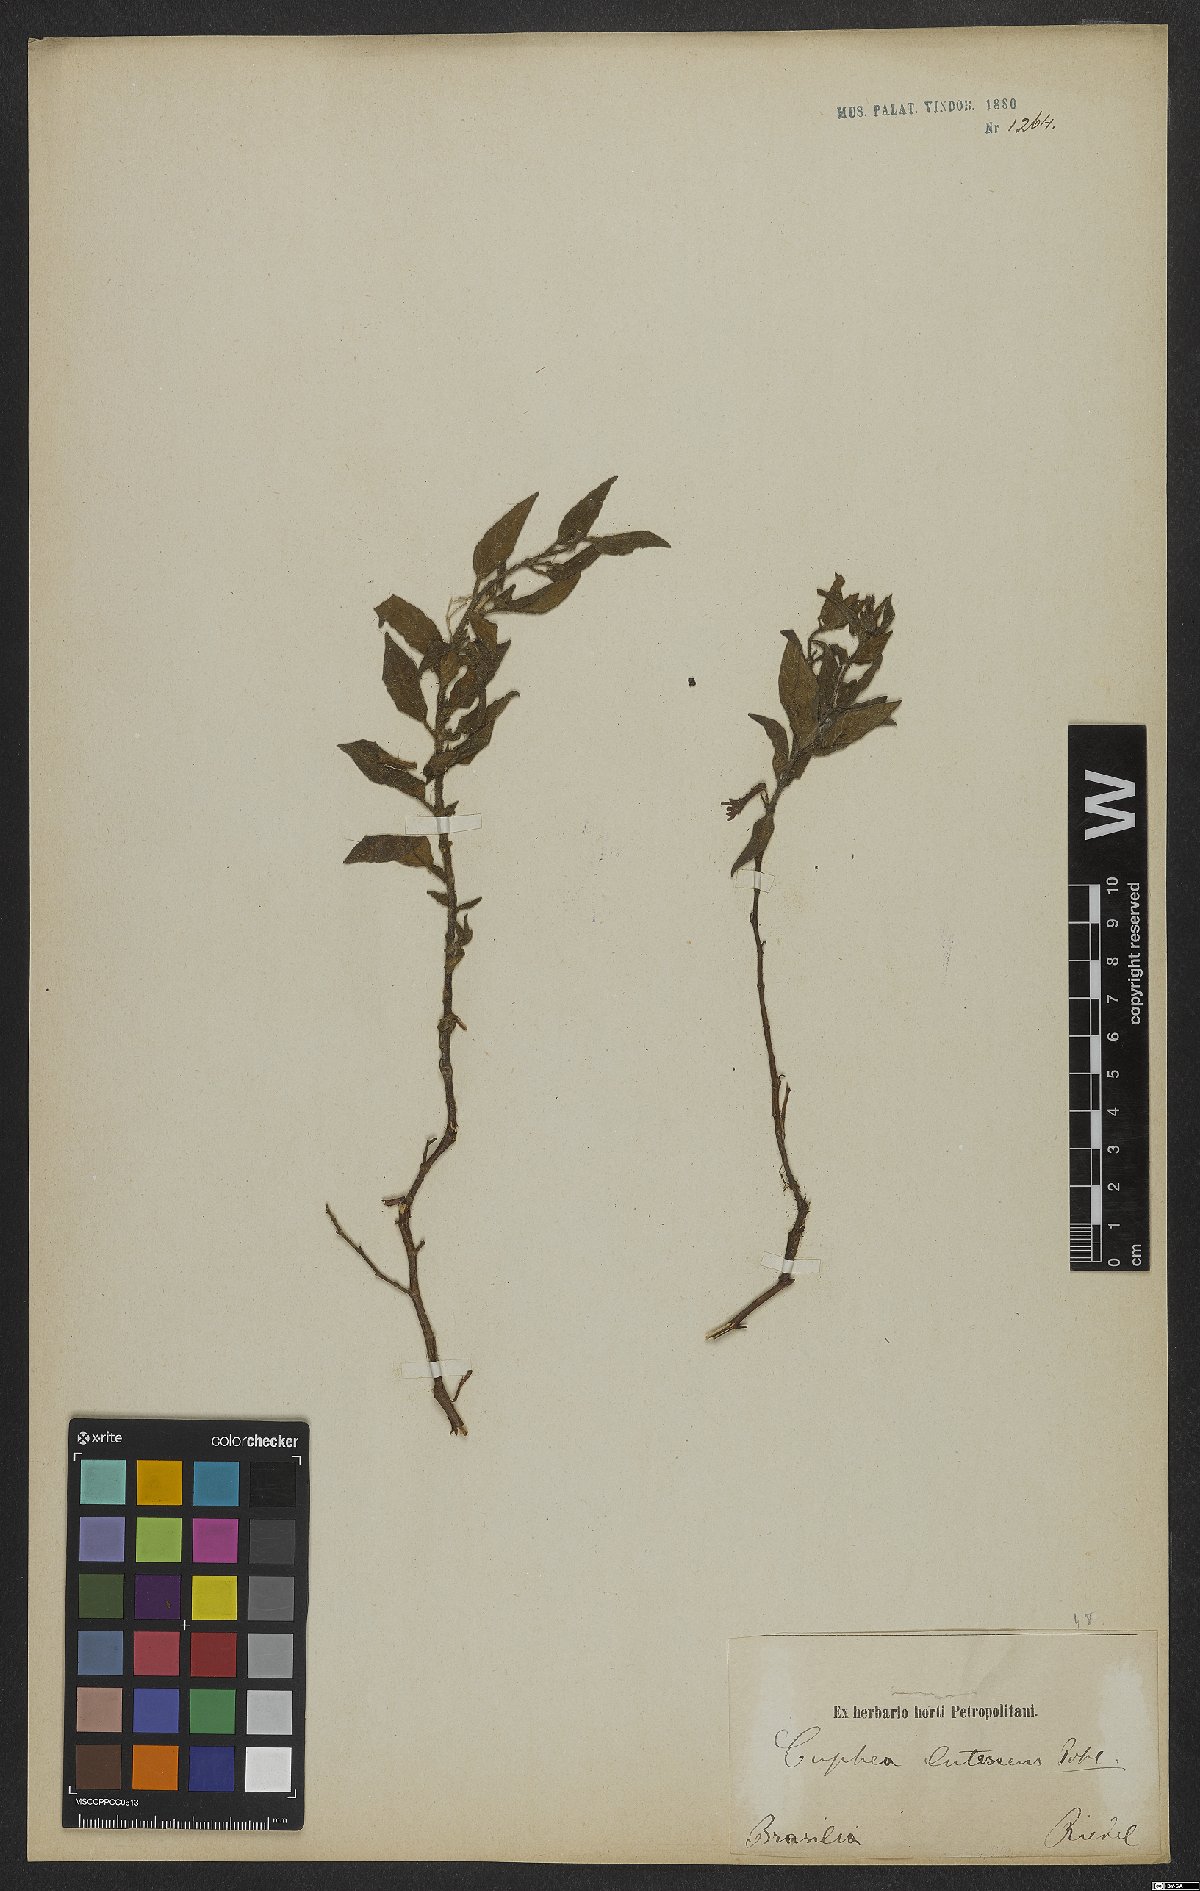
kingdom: Plantae
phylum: Tracheophyta
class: Magnoliopsida
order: Myrtales
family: Lythraceae
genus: Cuphea
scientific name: Cuphea lutescens
